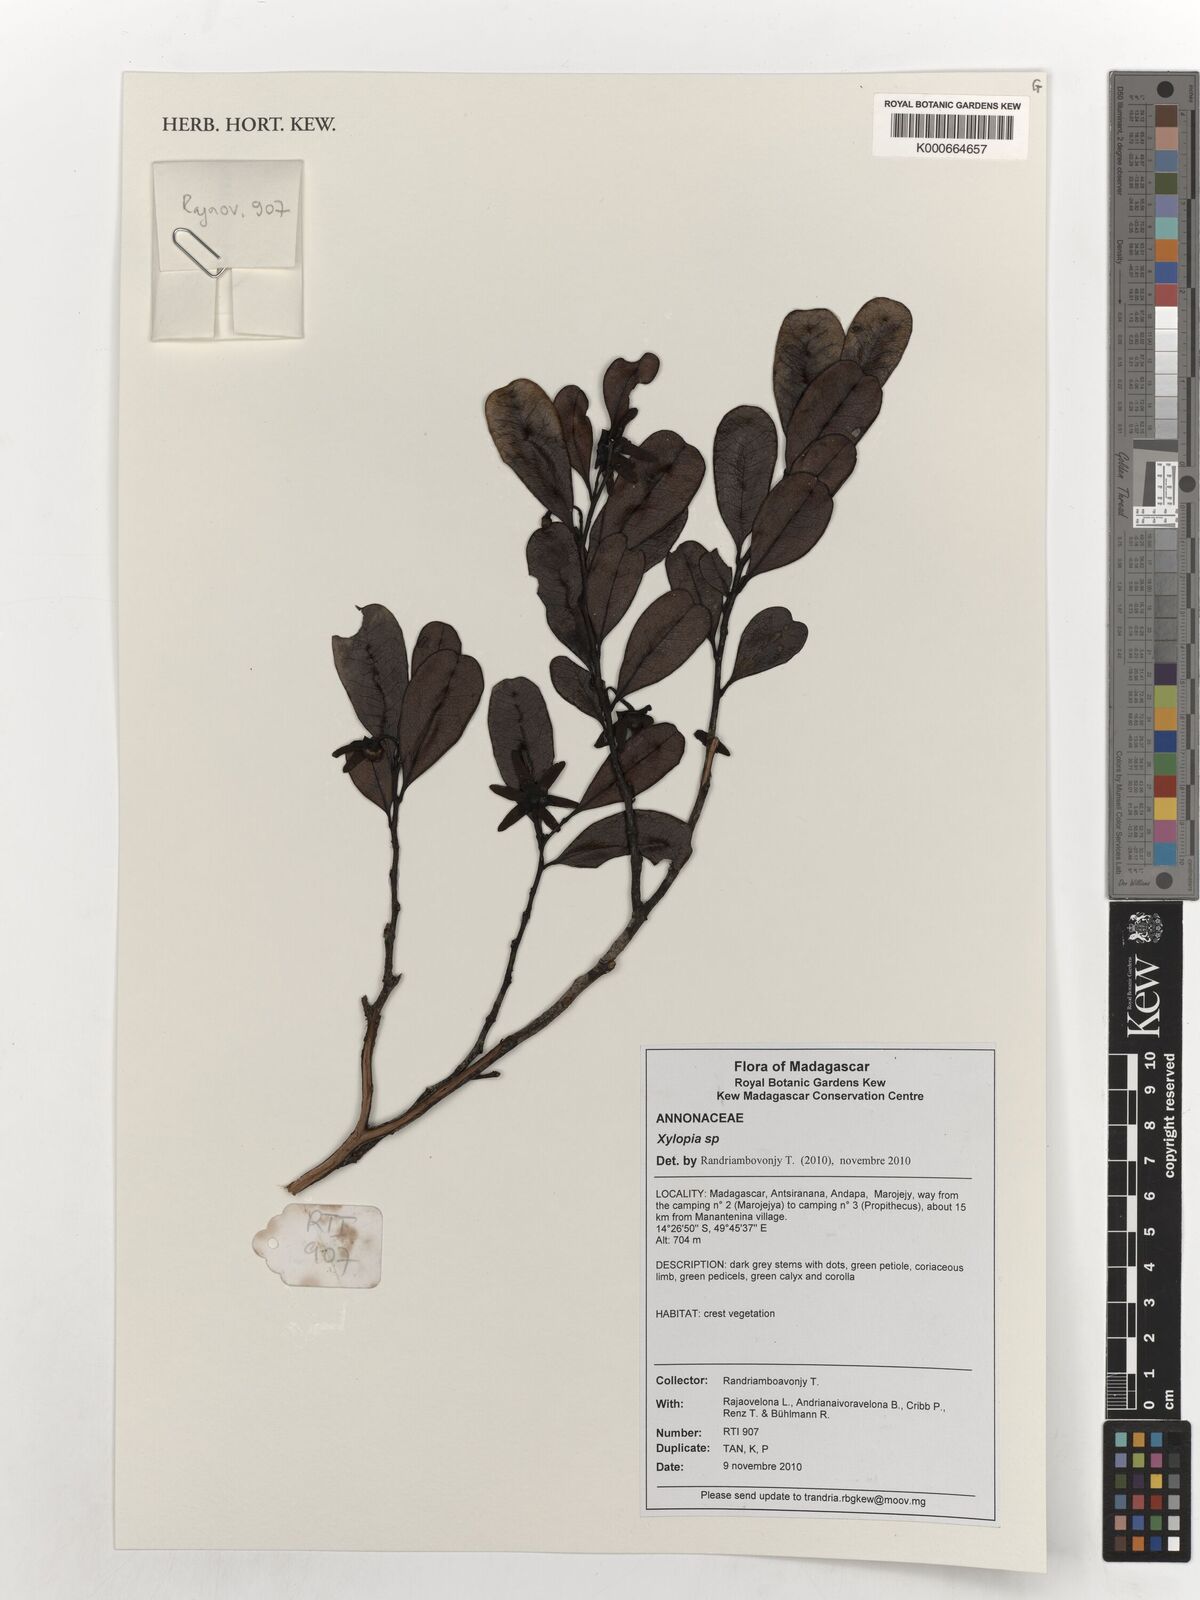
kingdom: Plantae
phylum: Tracheophyta
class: Magnoliopsida
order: Magnoliales
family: Annonaceae
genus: Xylopia
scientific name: Xylopia
